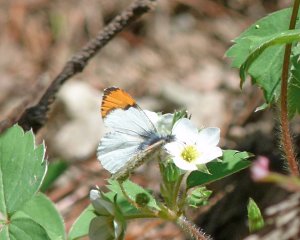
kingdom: Animalia
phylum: Arthropoda
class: Insecta
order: Lepidoptera
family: Pieridae
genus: Anthocharis
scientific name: Anthocharis sara
